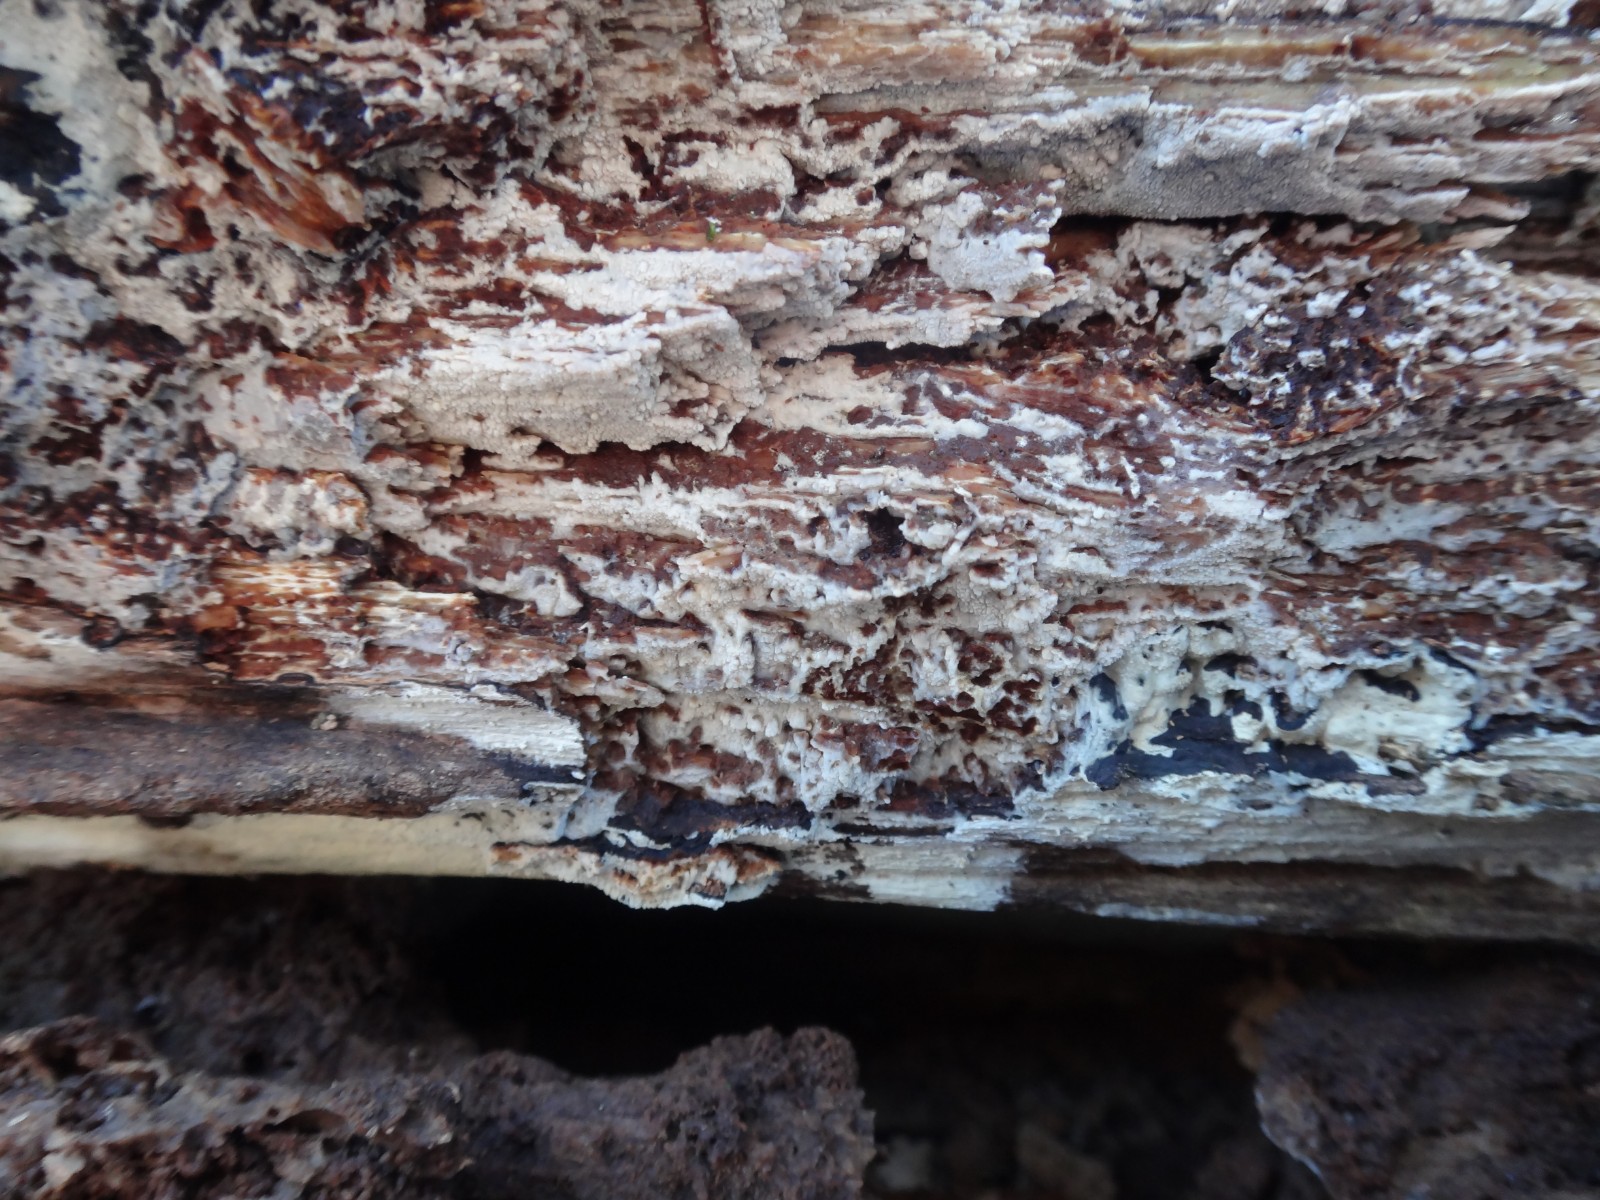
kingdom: Fungi
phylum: Basidiomycota
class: Agaricomycetes
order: Cantharellales
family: Hydnaceae
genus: Sistotrema
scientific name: Sistotrema brinkmannii
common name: bønnesporet kroneskorpe
